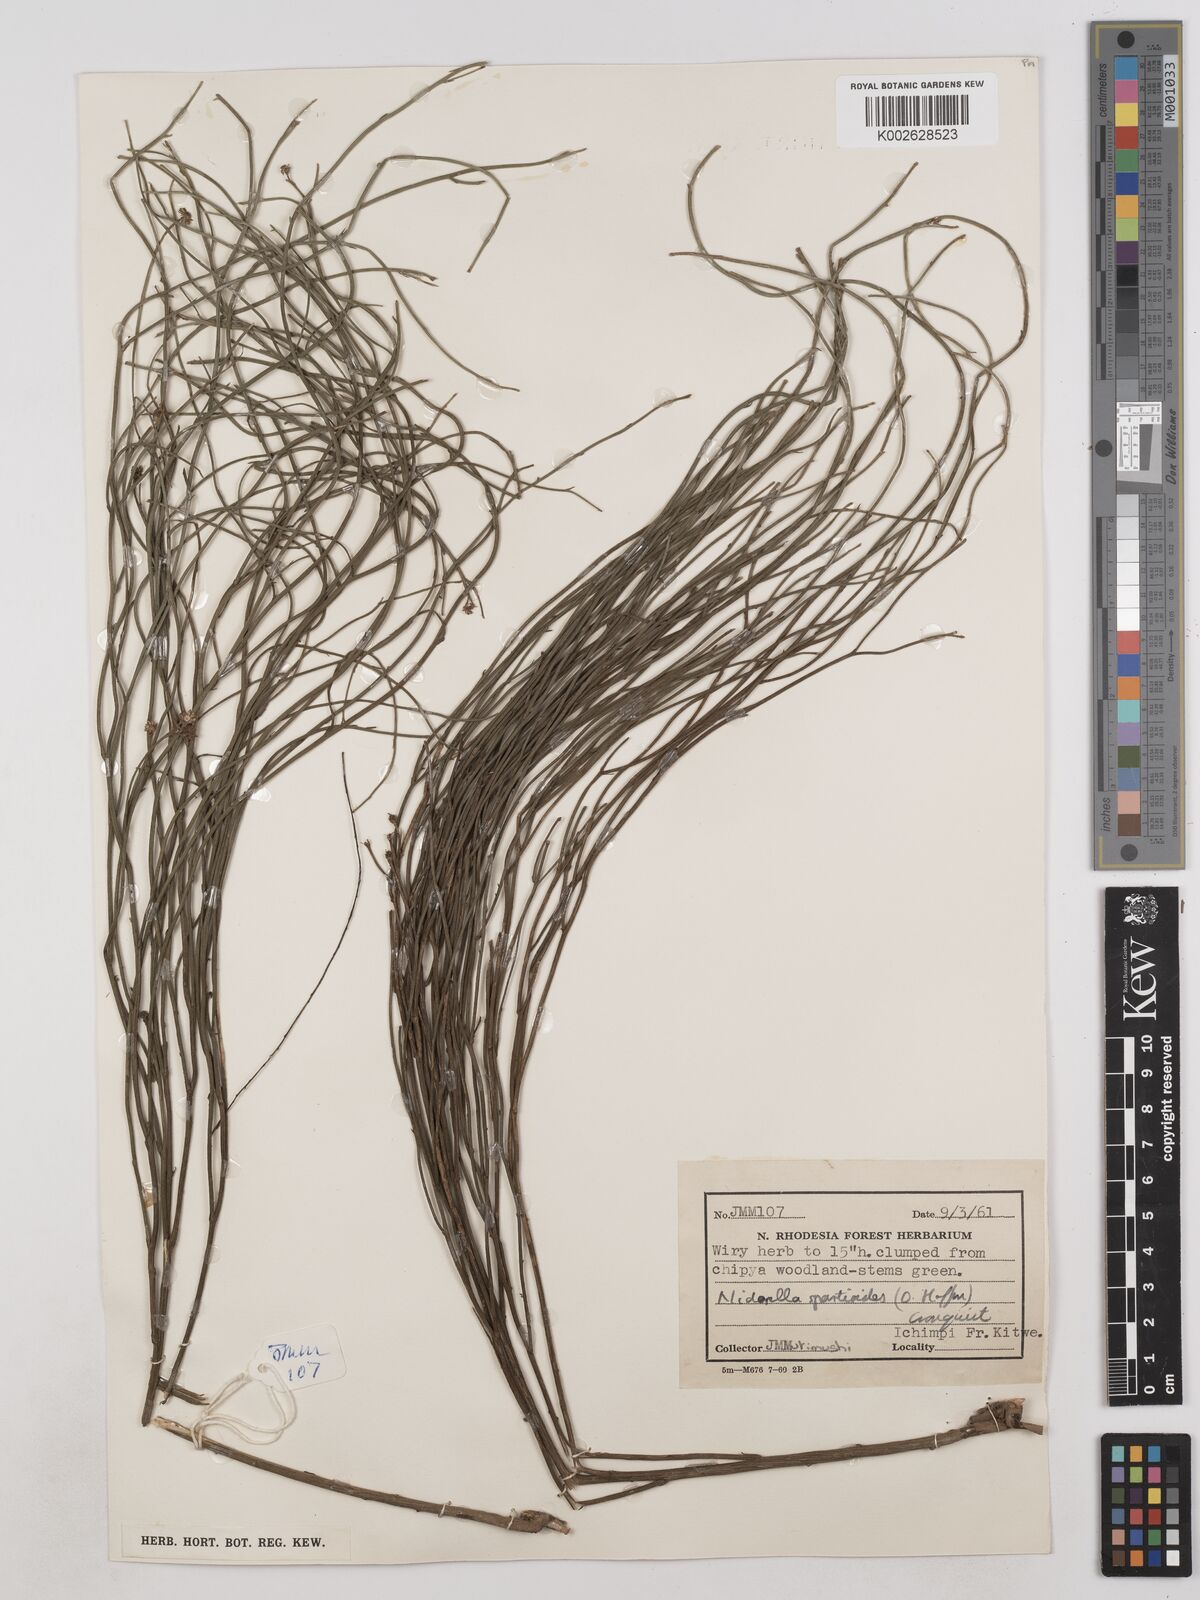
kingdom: Plantae
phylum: Tracheophyta
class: Magnoliopsida
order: Asterales
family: Asteraceae
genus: Nidorella
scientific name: Nidorella spartioides
